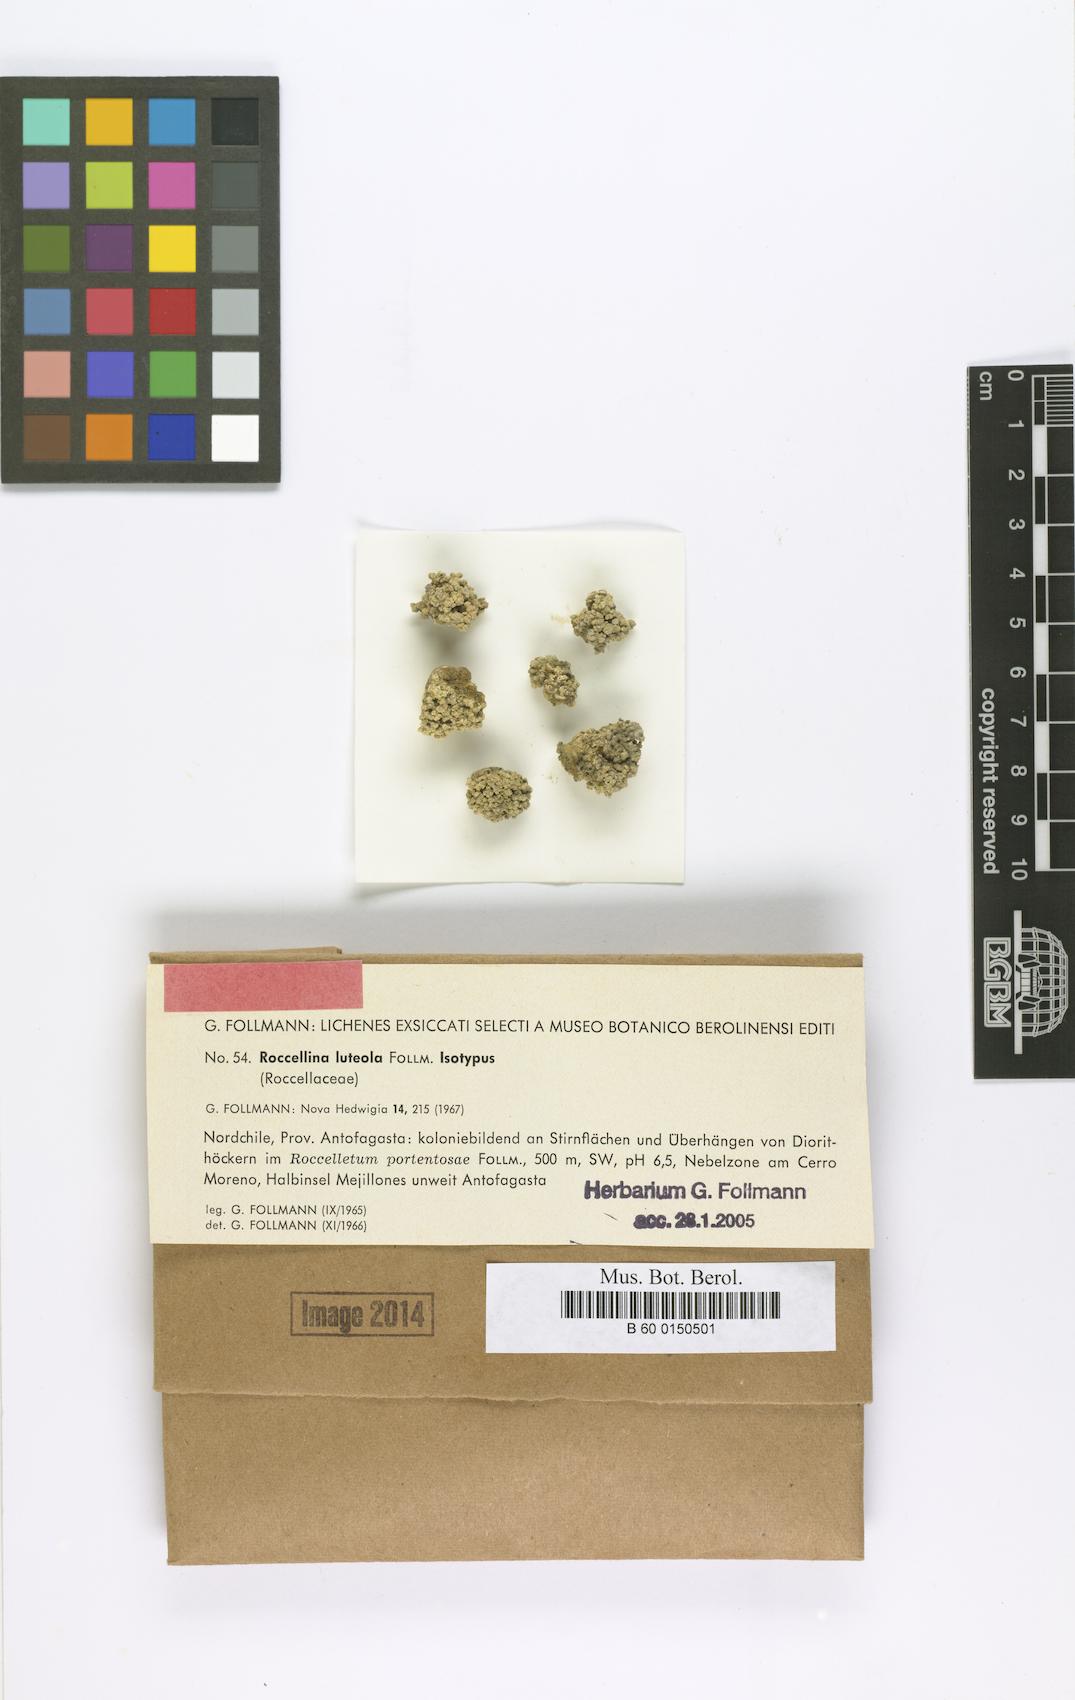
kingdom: Fungi
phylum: Ascomycota
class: Arthoniomycetes
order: Arthoniales
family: Roccellaceae
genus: Lecanactis
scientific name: Lecanactis luteola
